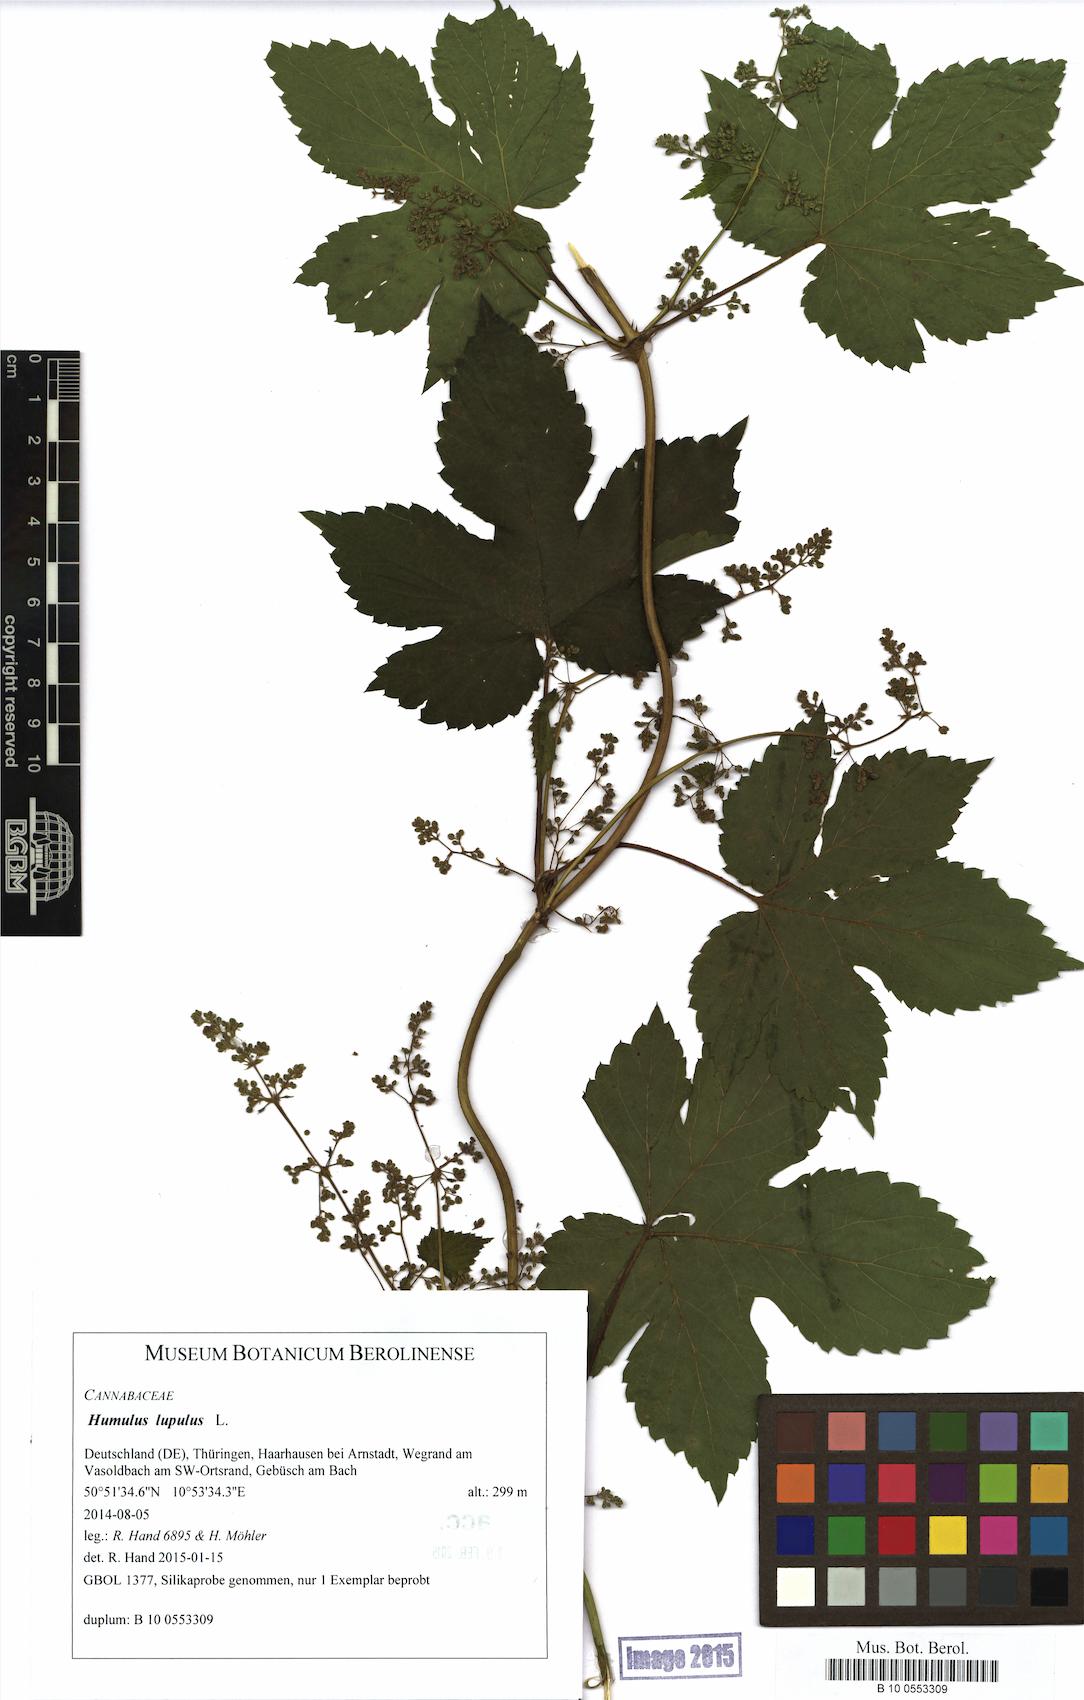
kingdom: Plantae
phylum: Tracheophyta
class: Magnoliopsida
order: Rosales
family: Cannabaceae
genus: Humulus
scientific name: Humulus lupulus
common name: Hop
